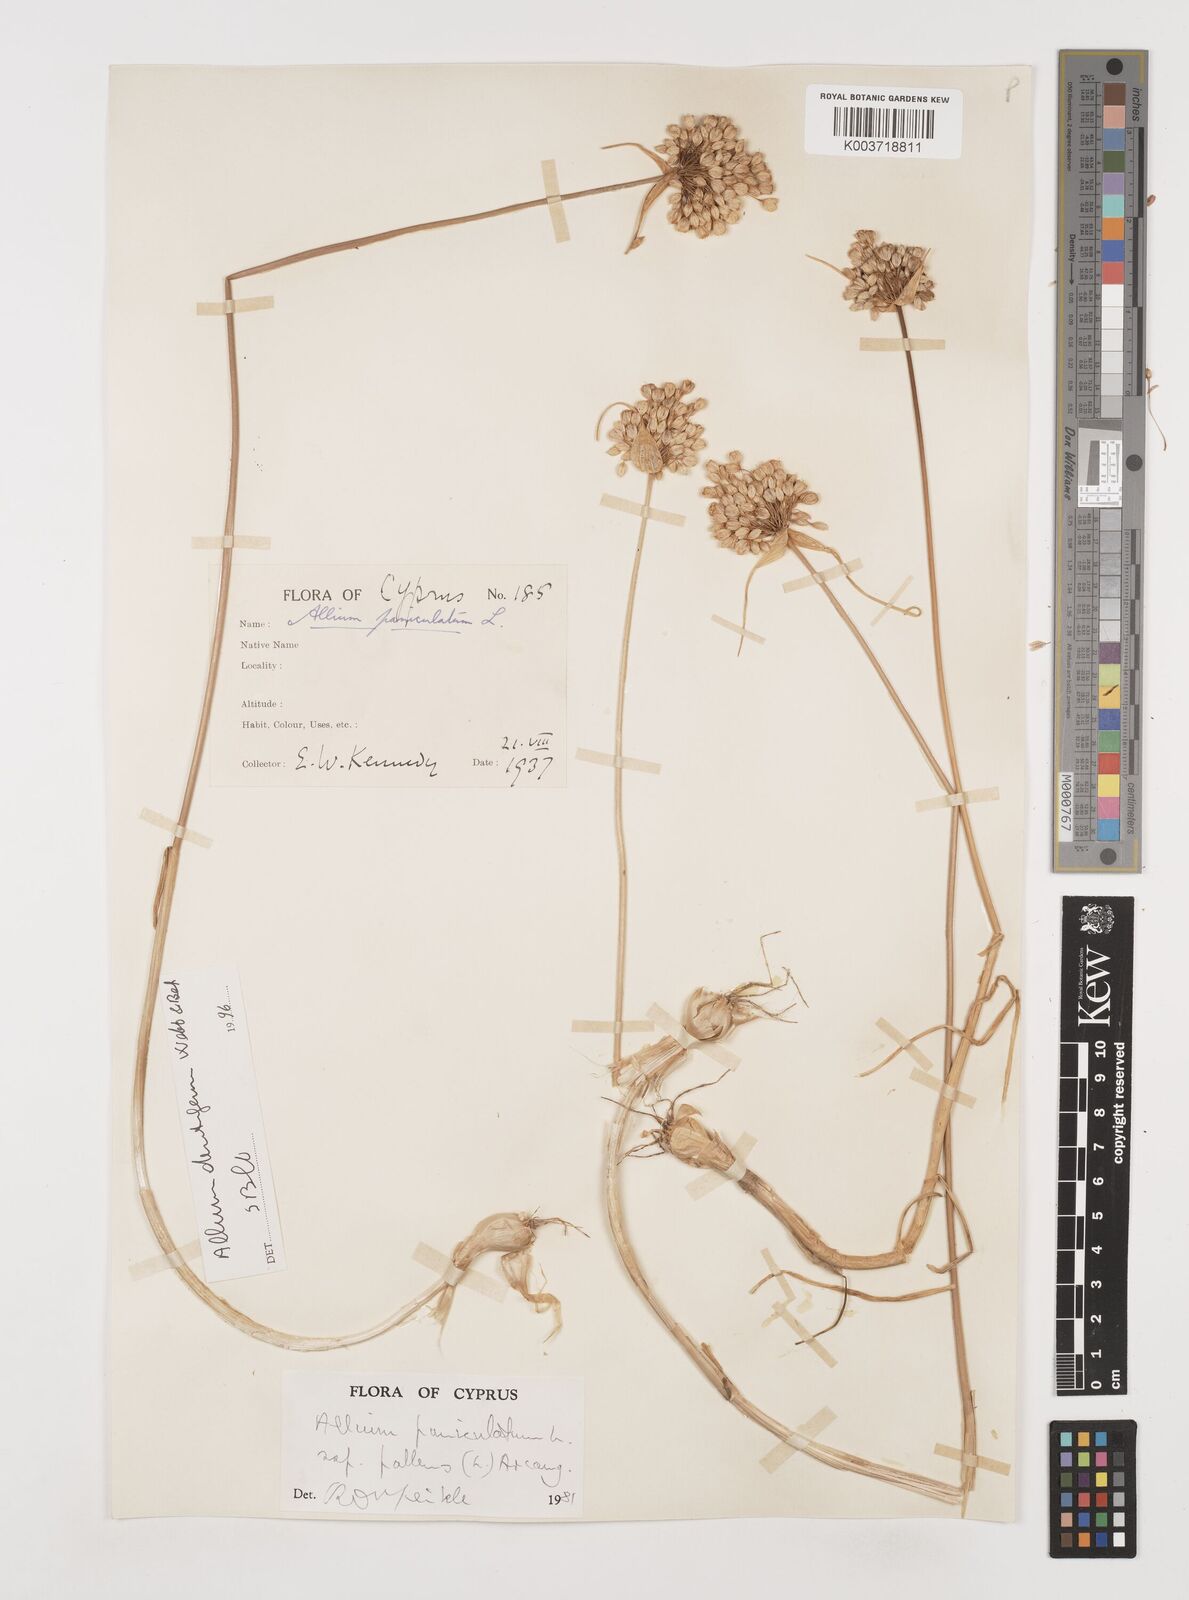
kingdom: Plantae
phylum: Tracheophyta
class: Liliopsida
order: Asparagales
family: Amaryllidaceae
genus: Allium
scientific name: Allium paniculatum
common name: Pale garlic
